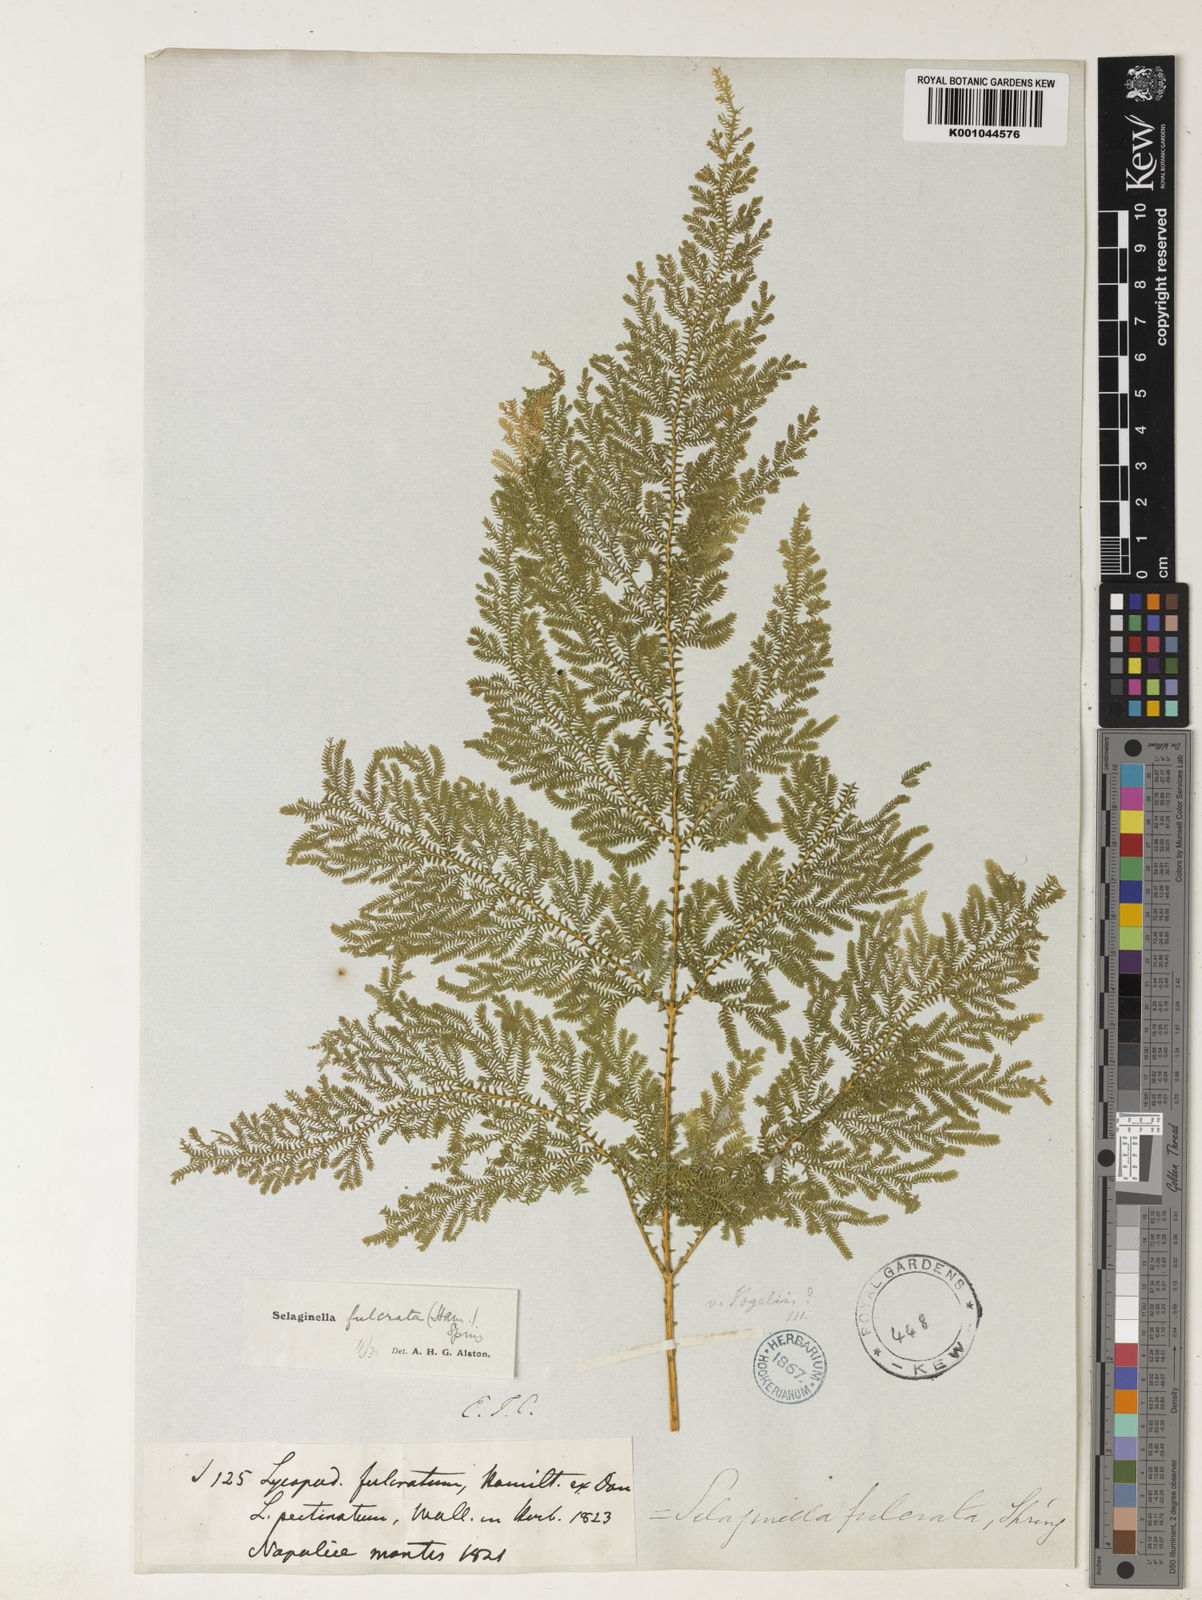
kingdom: Plantae
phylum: Tracheophyta
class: Lycopodiopsida
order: Selaginellales
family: Selaginellaceae
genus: Selaginella
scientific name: Selaginella fulcrata
